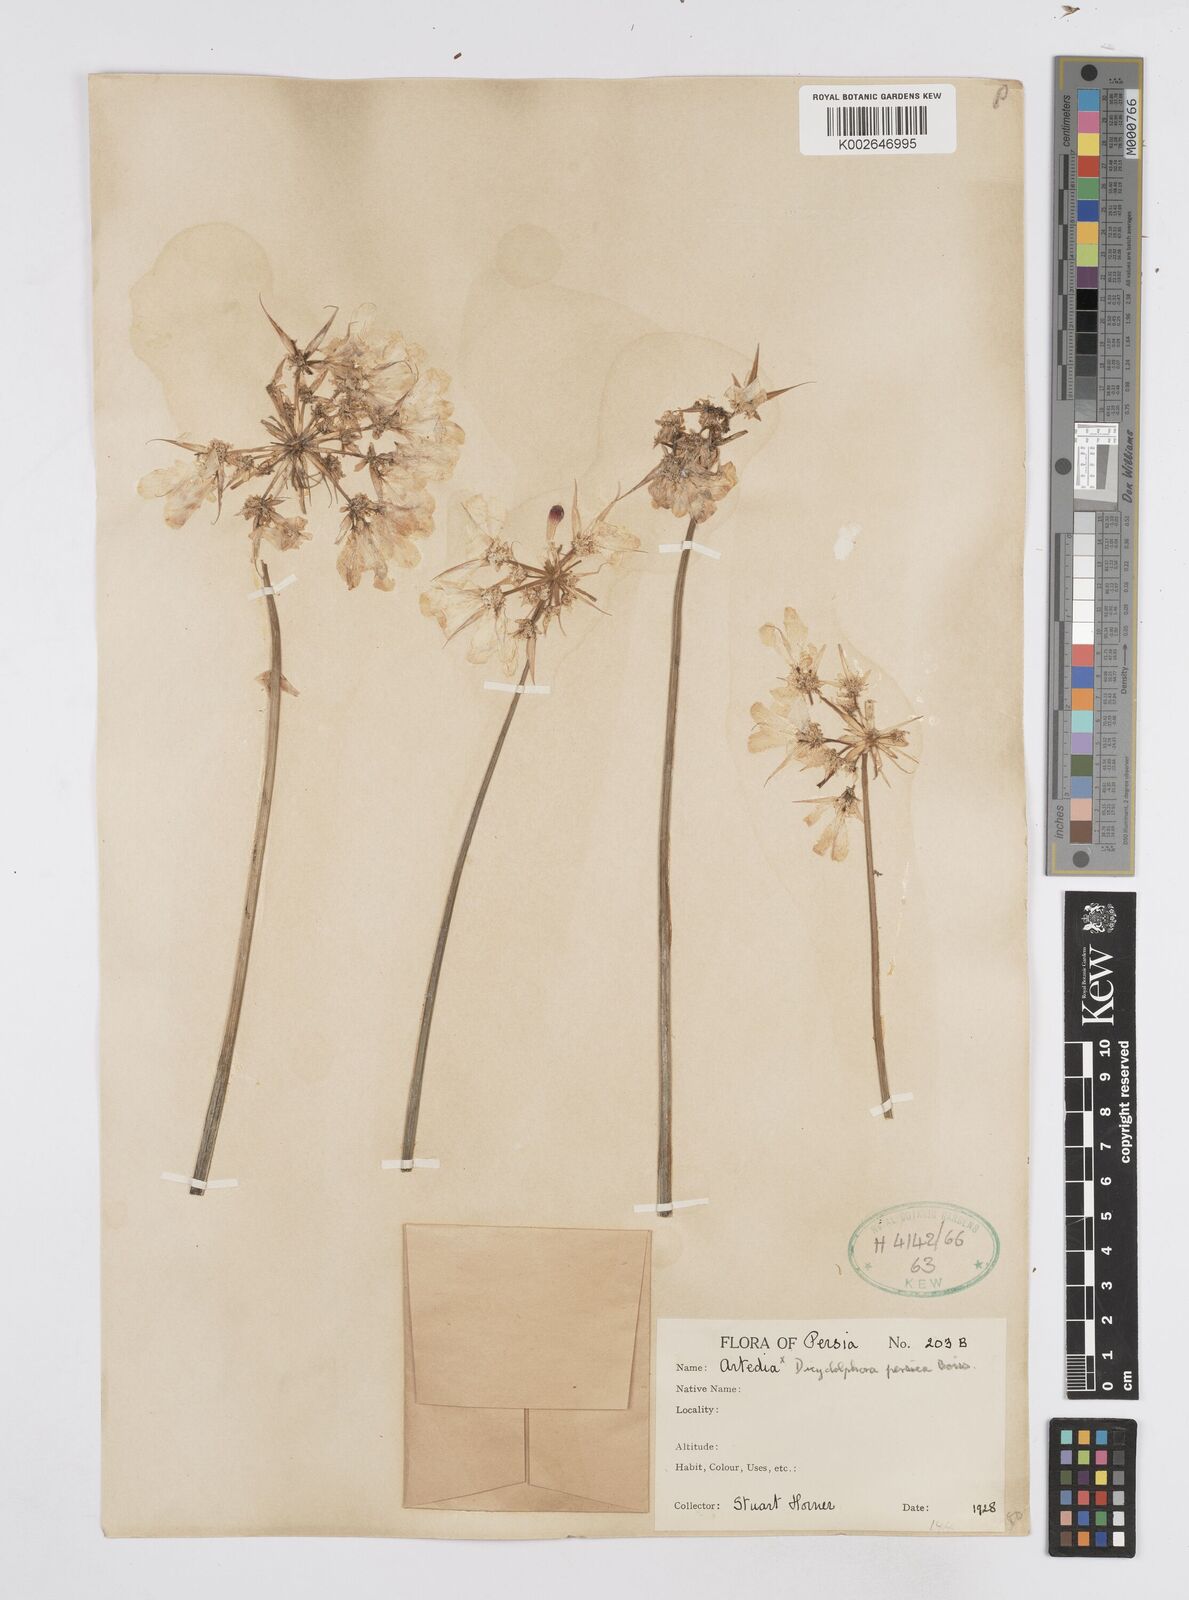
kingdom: Plantae
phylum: Tracheophyta
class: Magnoliopsida
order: Apiales
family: Apiaceae
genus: Dicyclophora
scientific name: Dicyclophora persica
